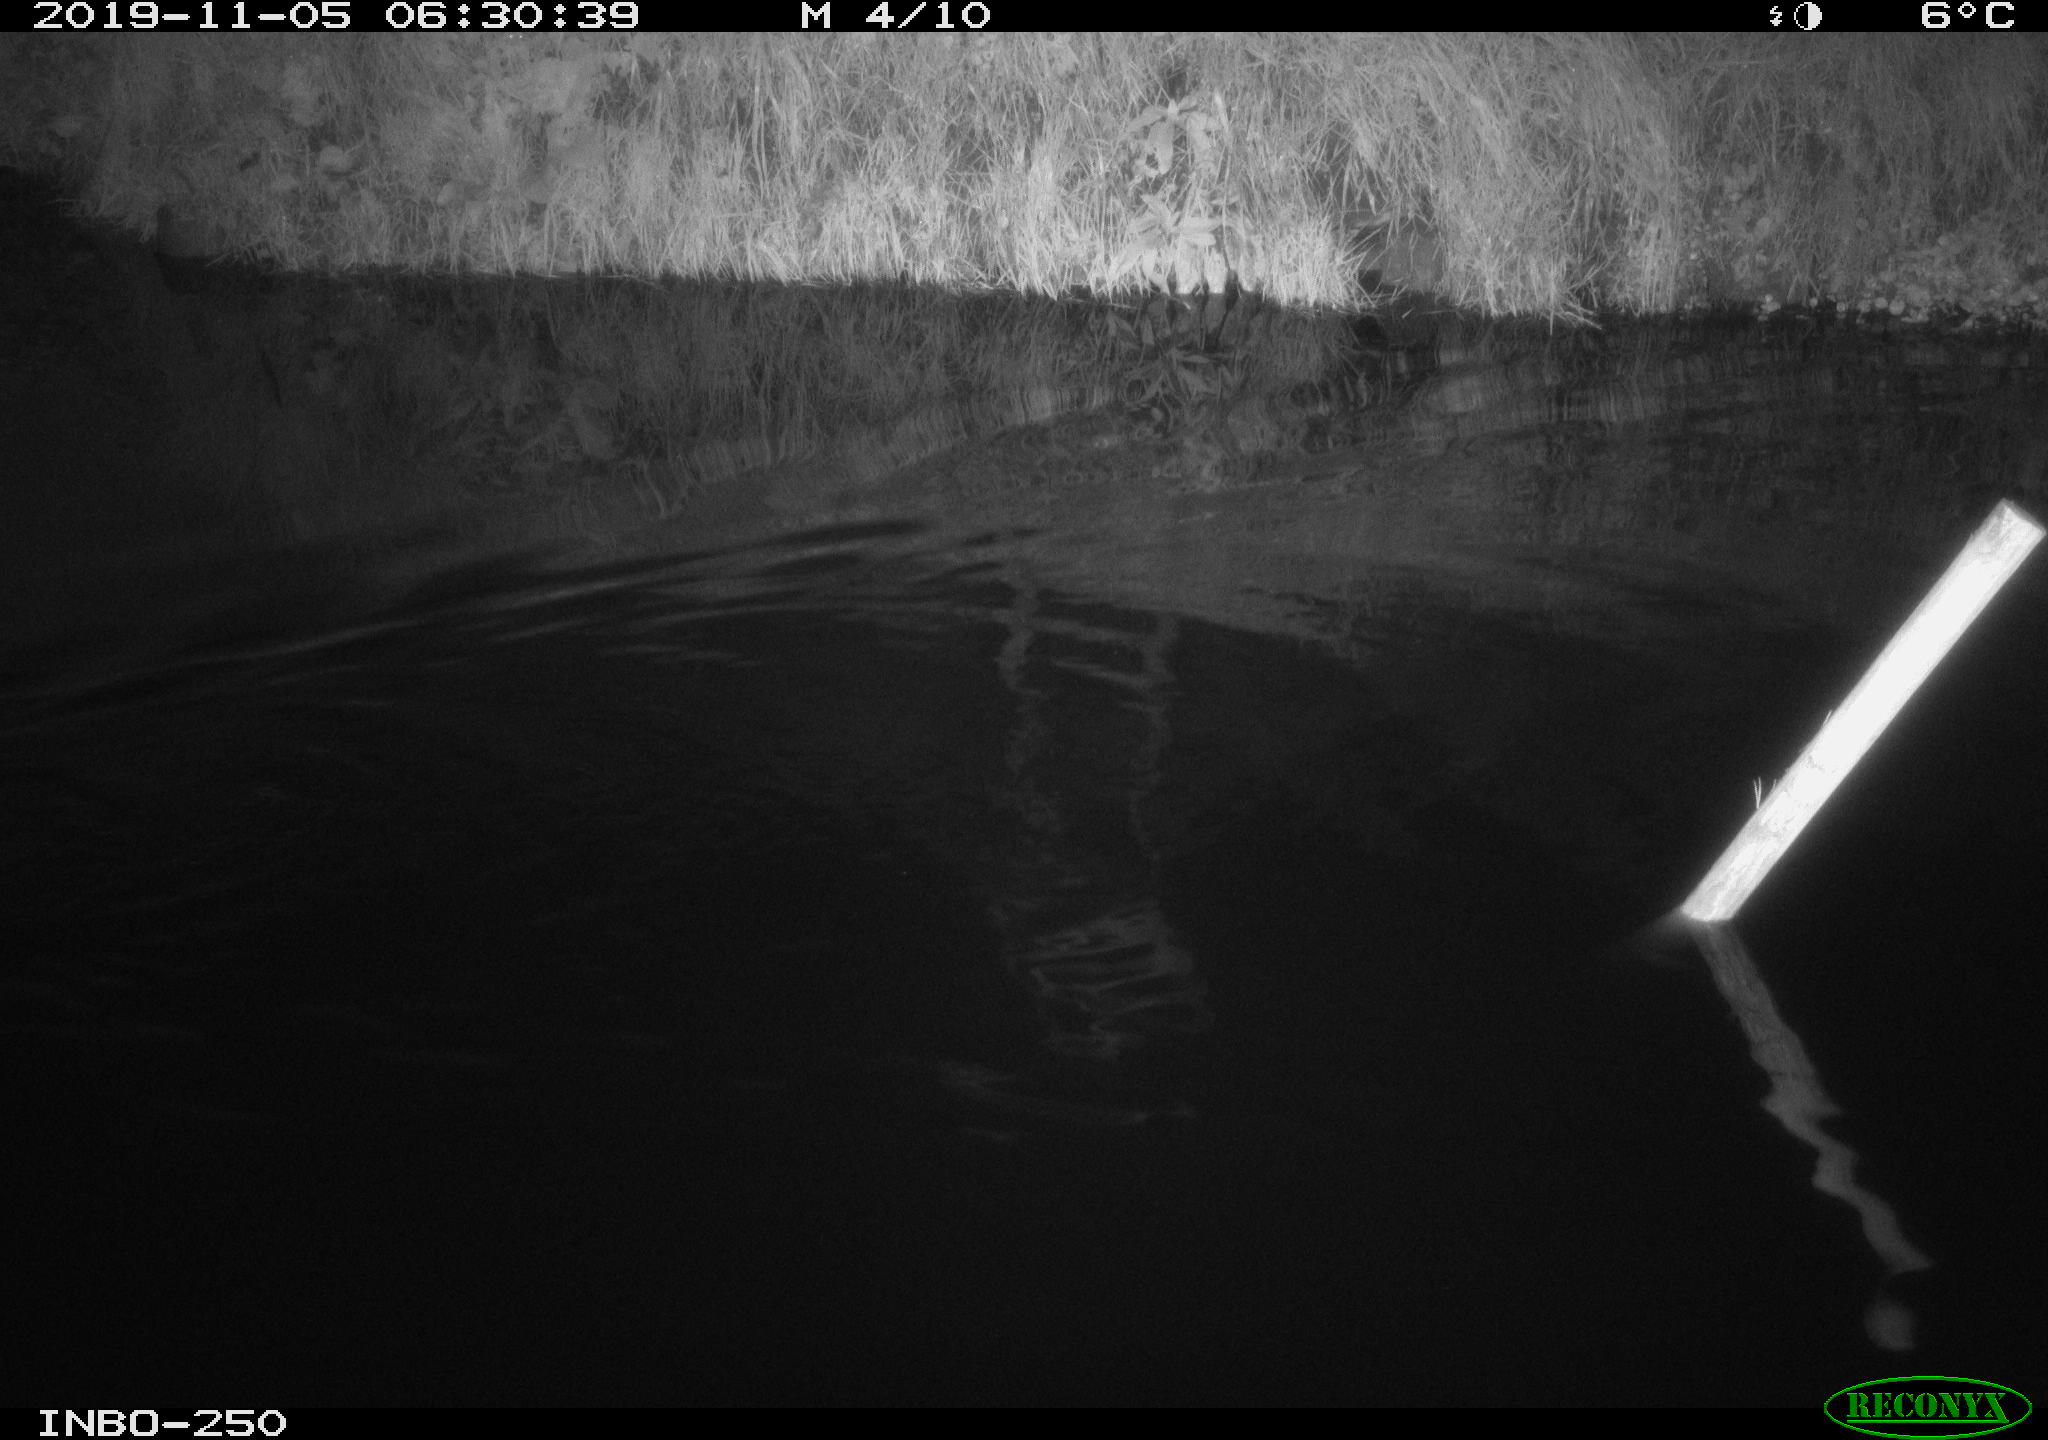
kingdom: Animalia
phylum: Chordata
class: Aves
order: Anseriformes
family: Anatidae
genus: Anas
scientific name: Anas platyrhynchos
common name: Mallard
